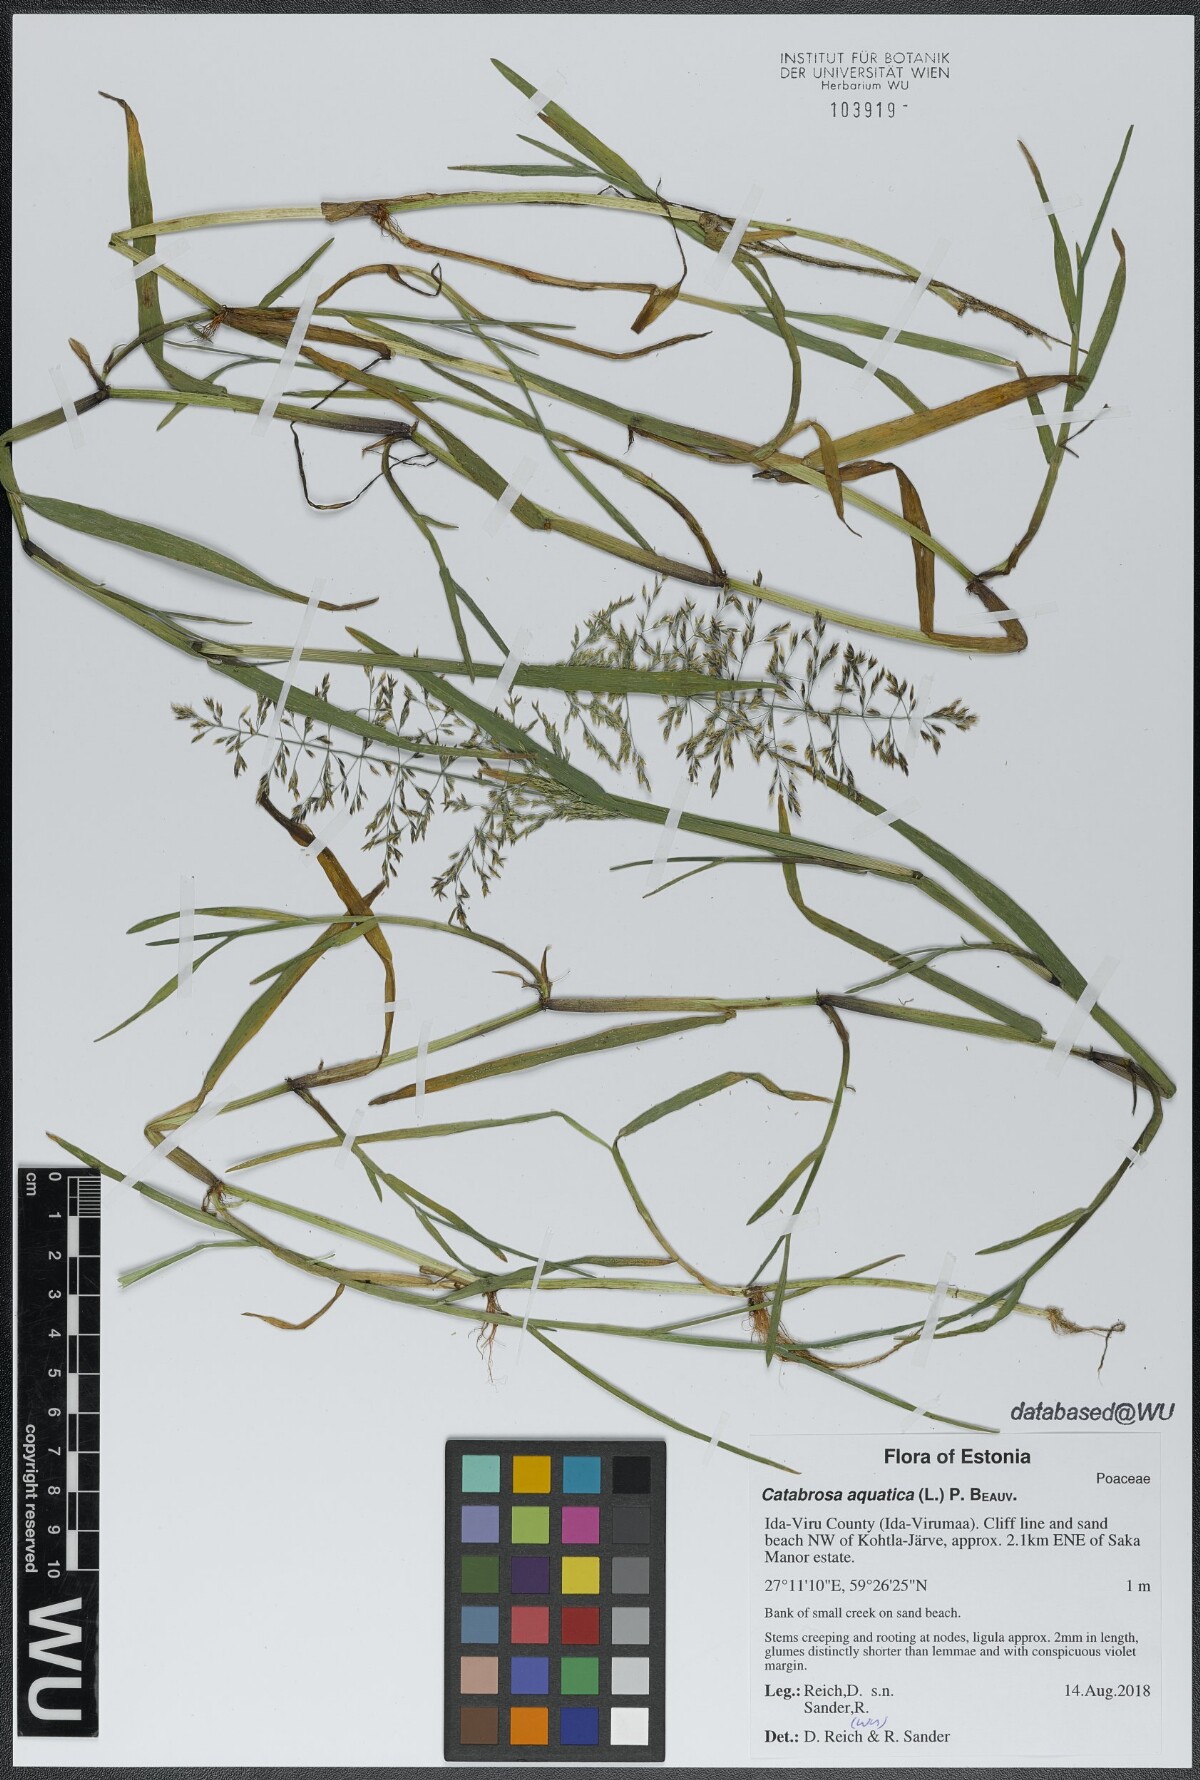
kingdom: Plantae
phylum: Tracheophyta
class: Liliopsida
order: Poales
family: Poaceae
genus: Catabrosa
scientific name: Catabrosa aquatica
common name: Whorl-grass
